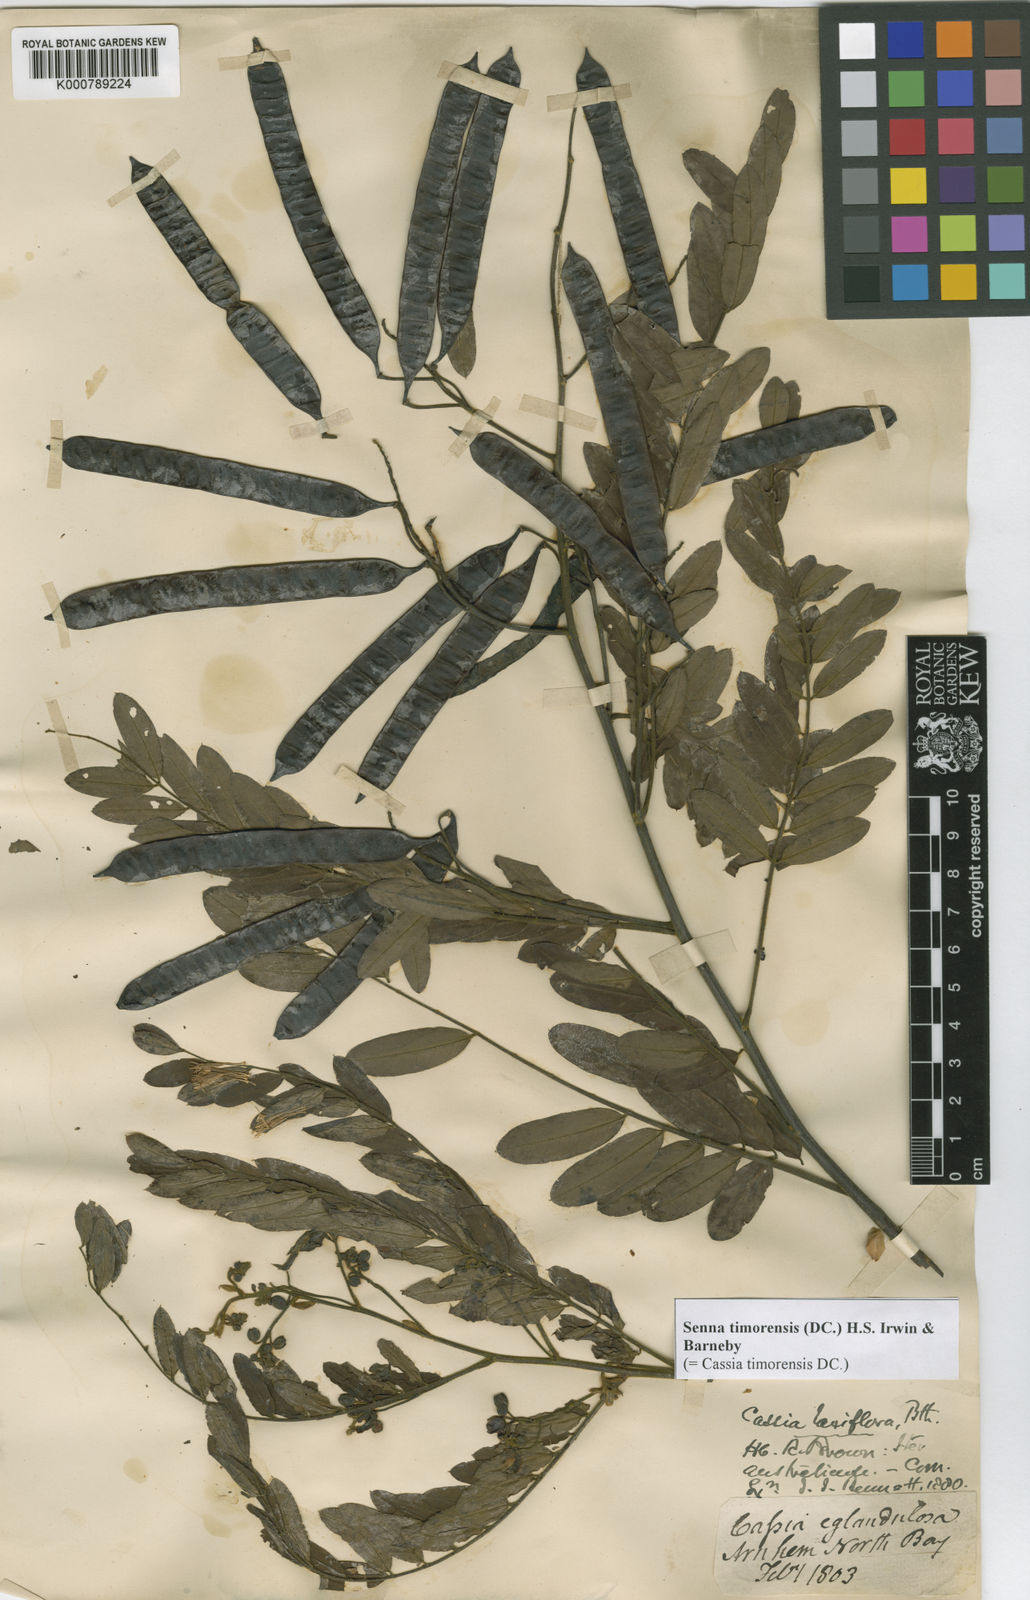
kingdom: Plantae
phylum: Tracheophyta
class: Magnoliopsida
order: Fabales
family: Fabaceae
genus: Senna
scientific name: Senna timoriensis
